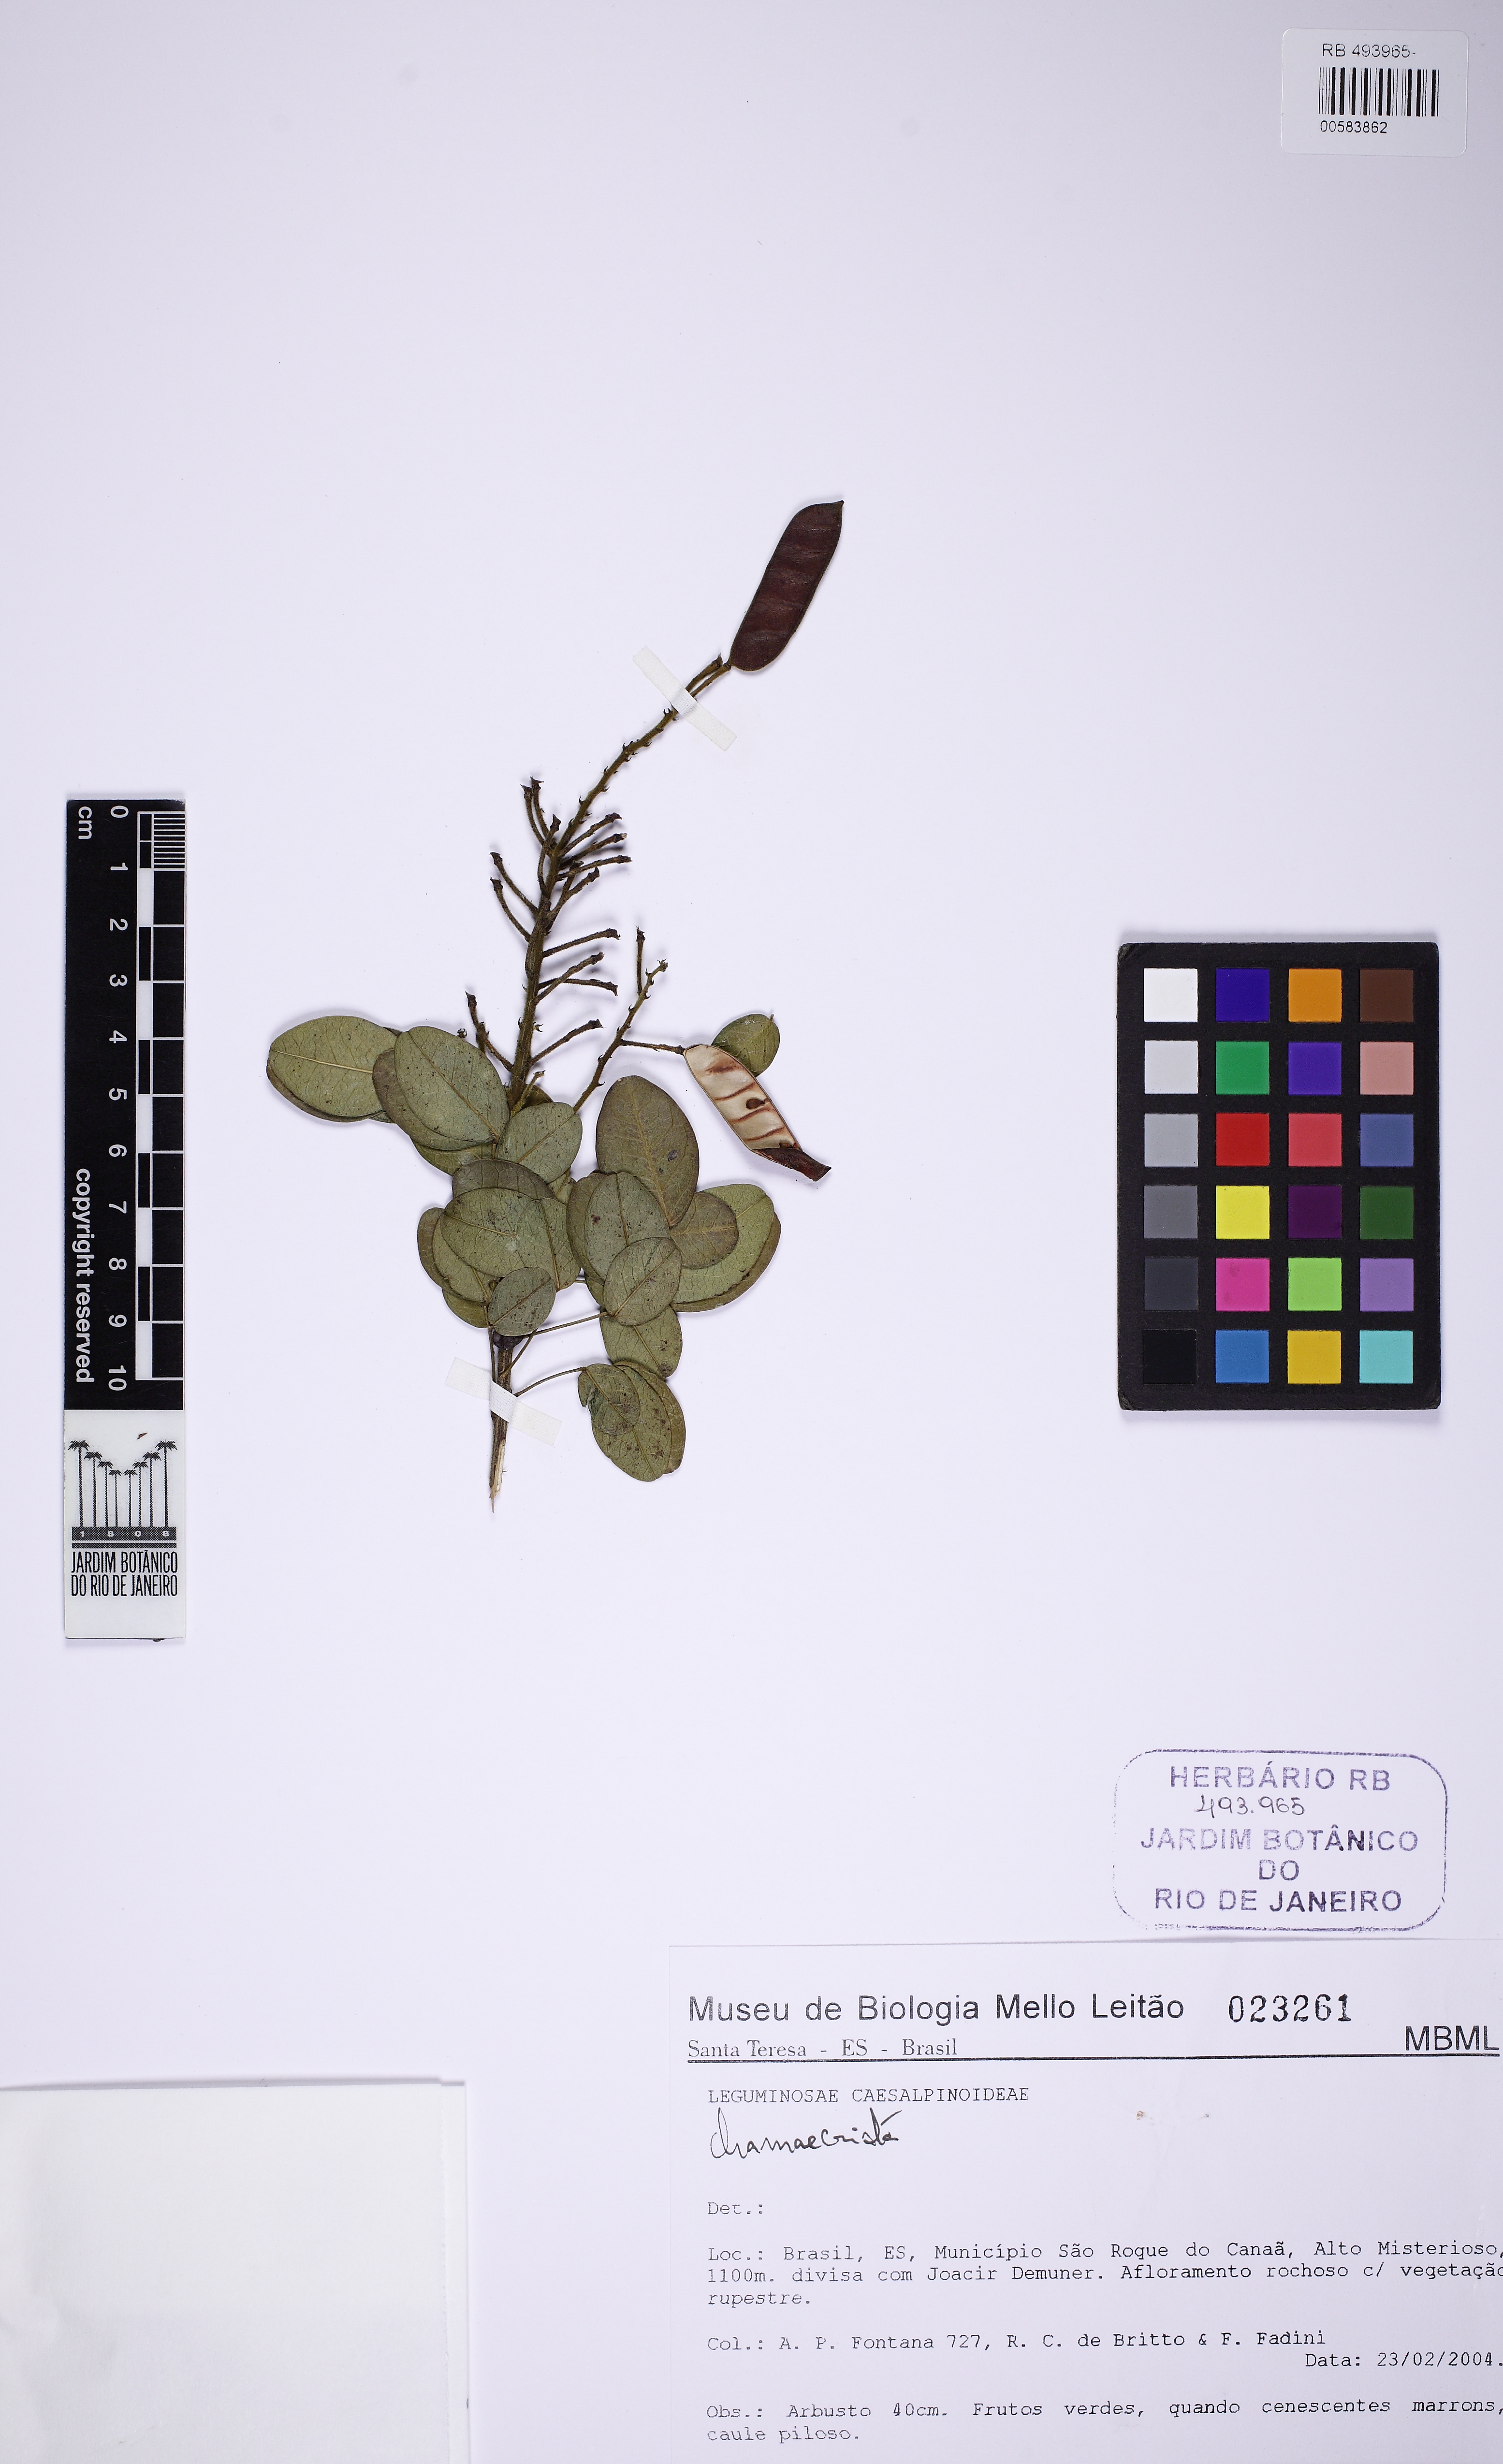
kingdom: Plantae
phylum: Tracheophyta
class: Magnoliopsida
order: Fabales
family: Fabaceae
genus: Chamaecrista
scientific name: Chamaecrista
